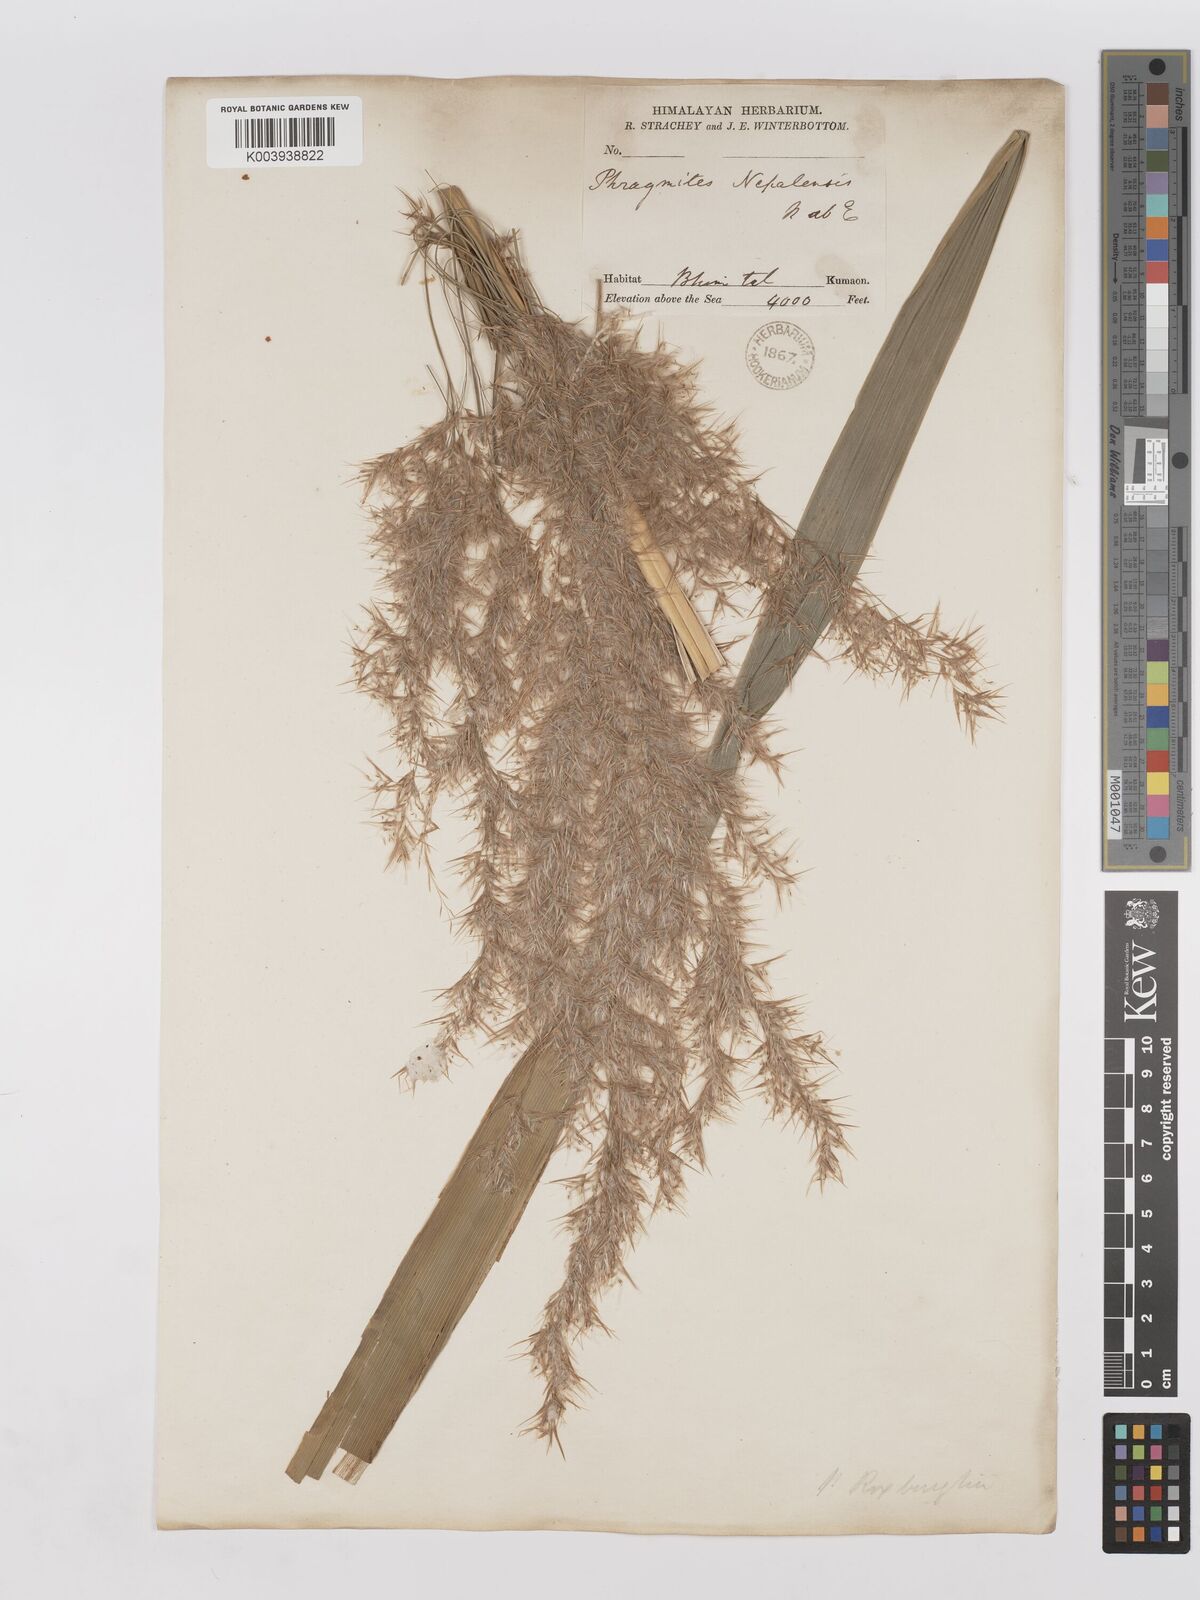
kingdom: Plantae
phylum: Tracheophyta
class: Liliopsida
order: Poales
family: Poaceae
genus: Phragmites
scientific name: Phragmites karka
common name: Tropical reed
